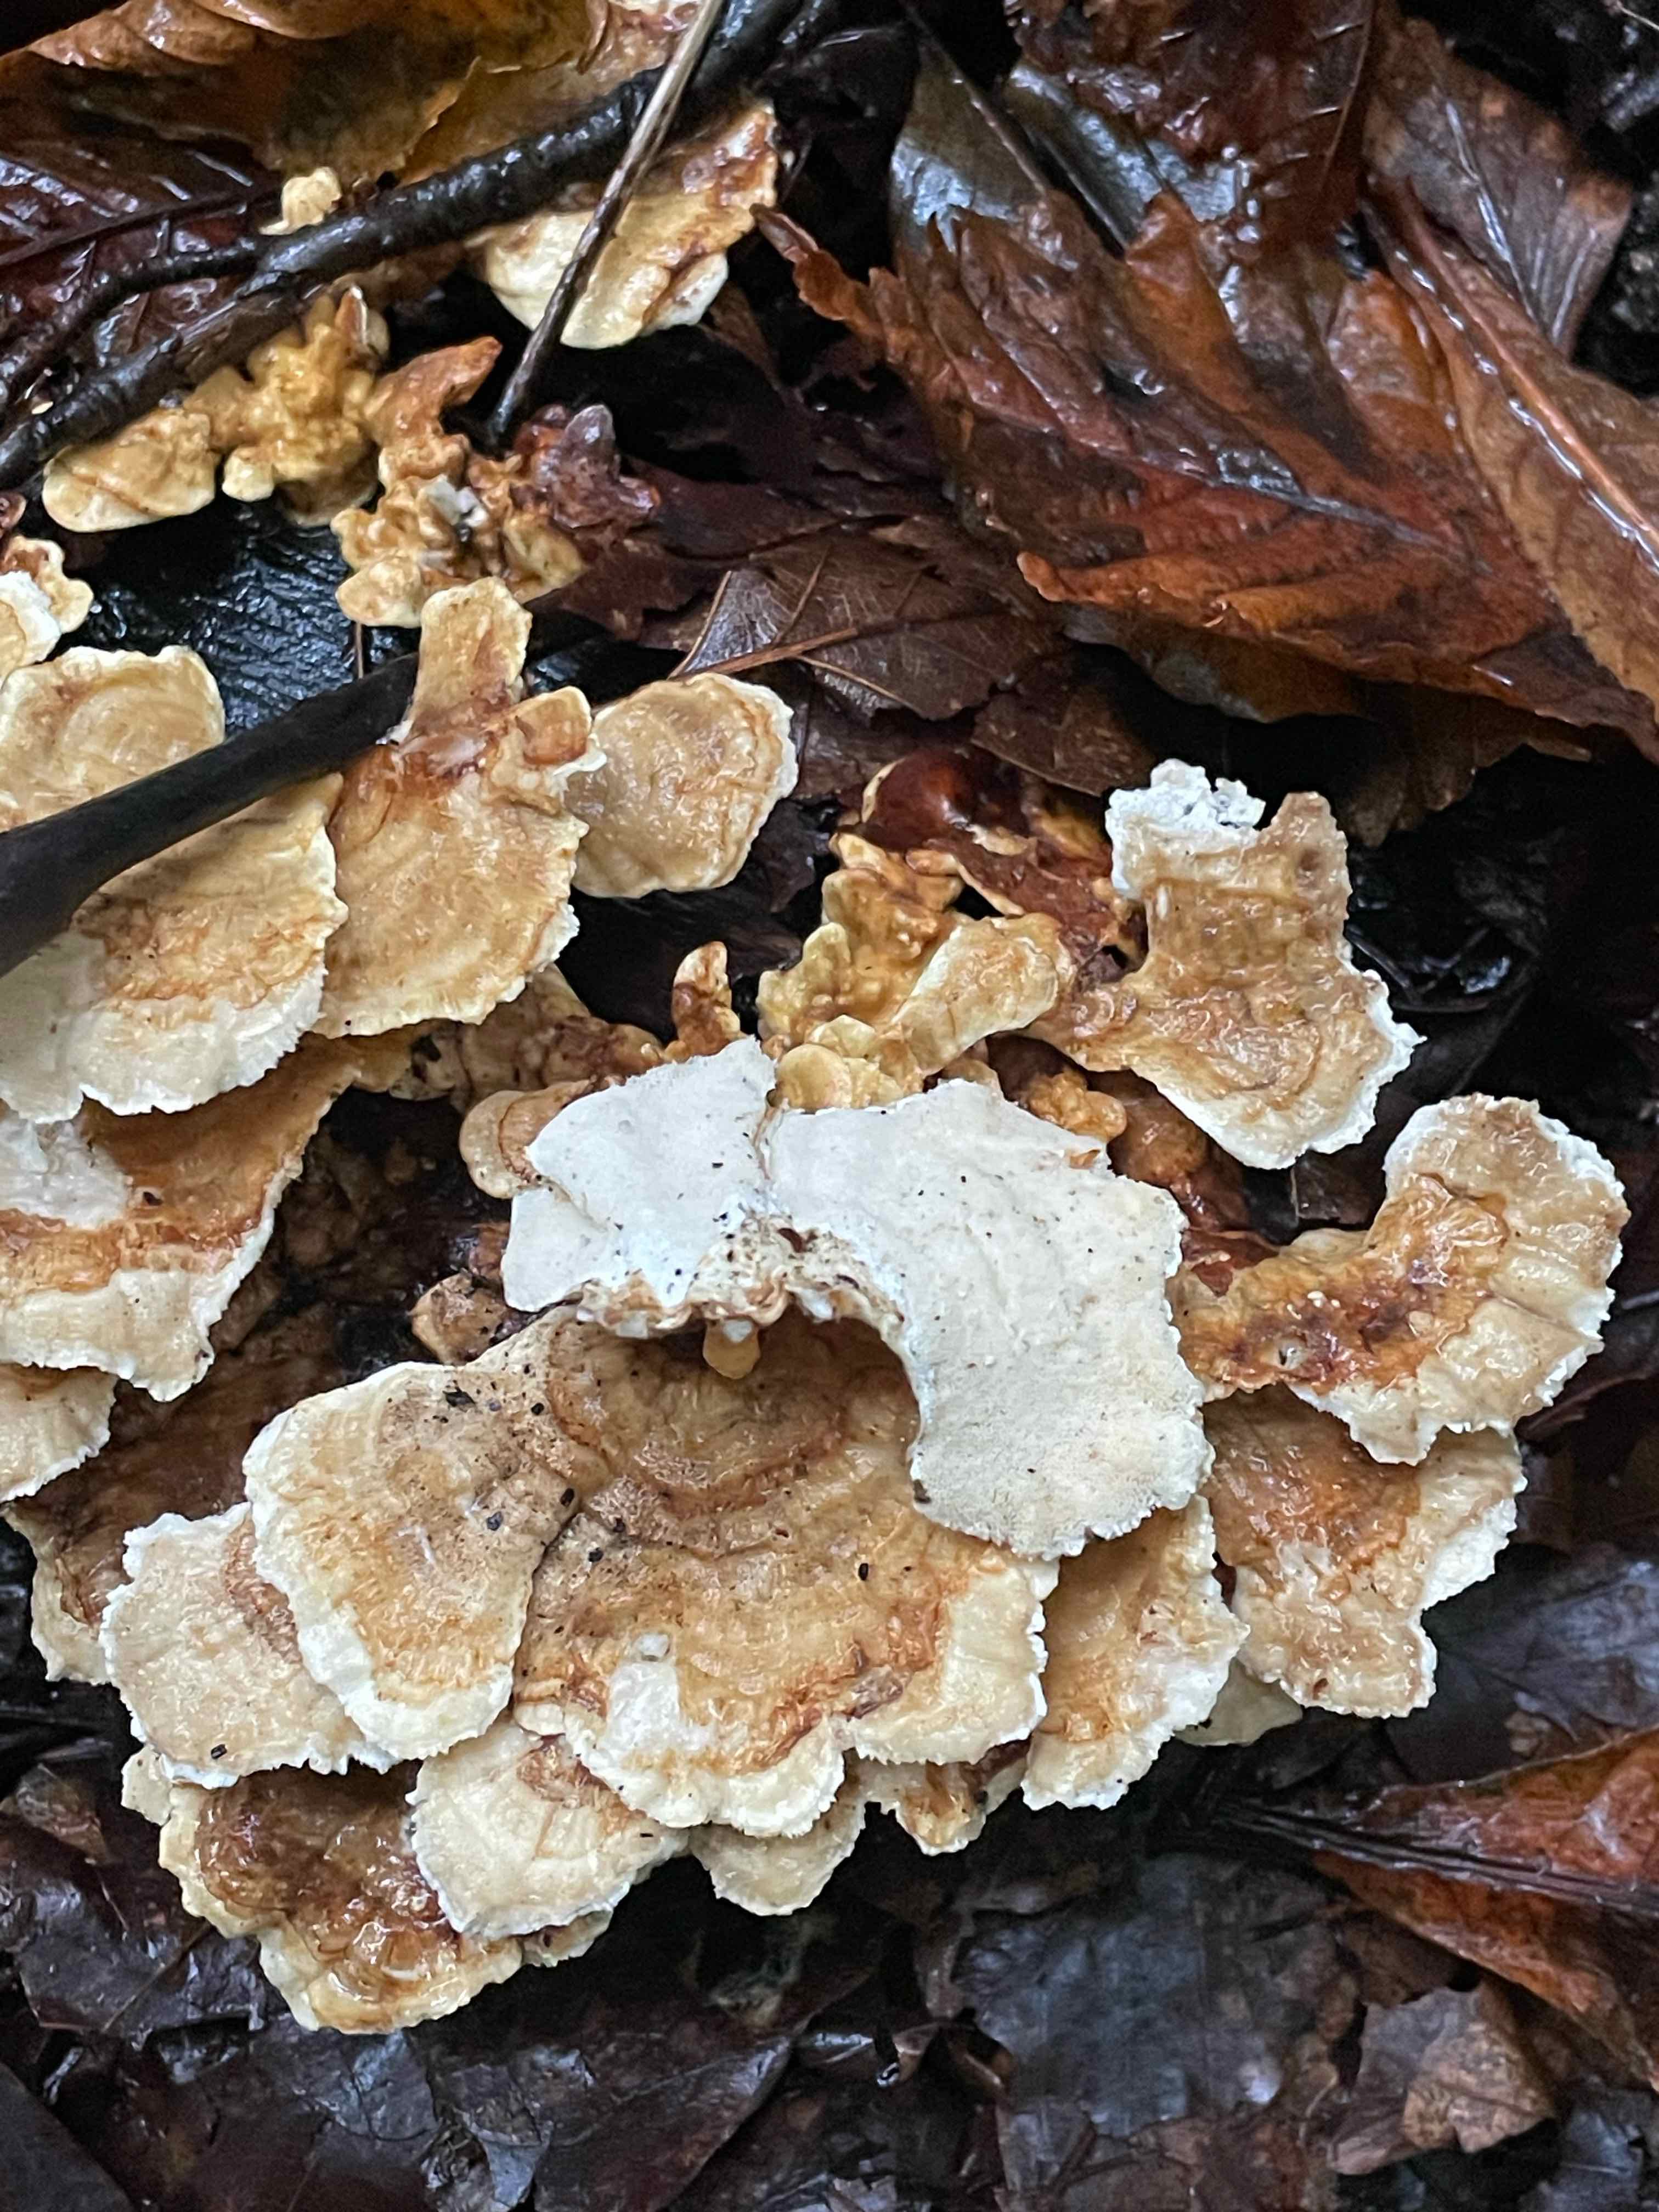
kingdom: Fungi
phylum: Basidiomycota
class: Agaricomycetes
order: Polyporales
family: Polyporaceae
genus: Trametes
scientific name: Trametes
